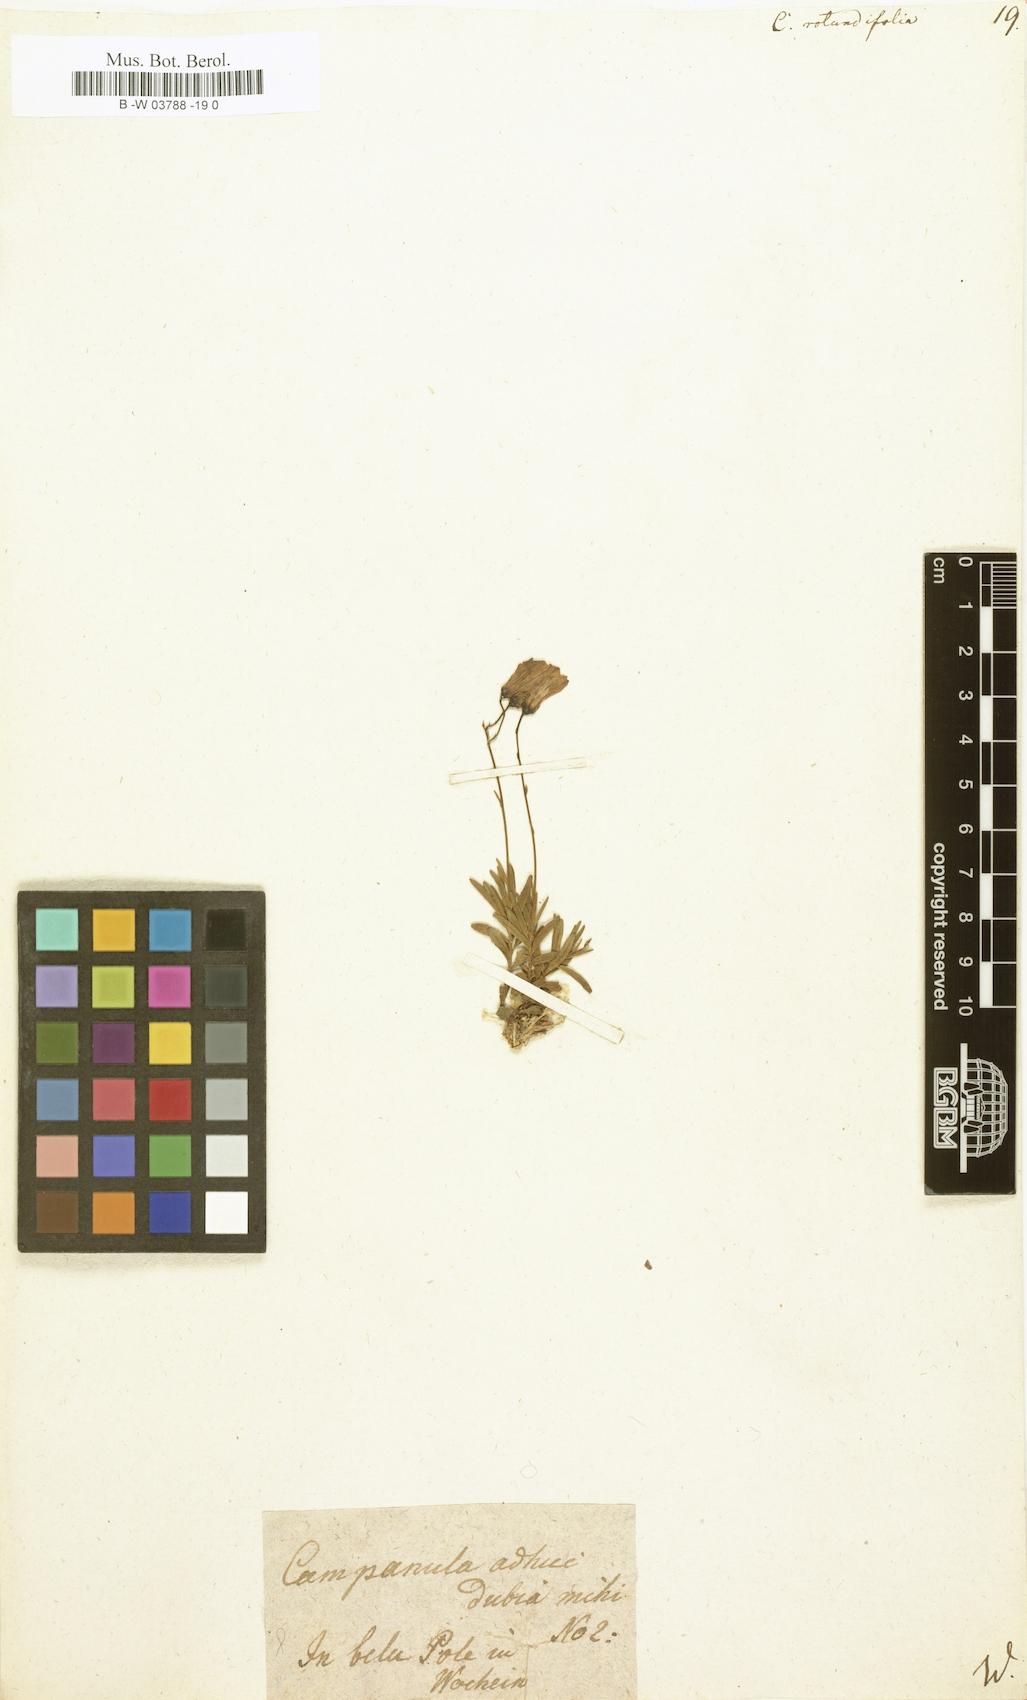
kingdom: Plantae
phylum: Tracheophyta
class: Magnoliopsida
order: Asterales
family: Campanulaceae
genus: Campanula
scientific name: Campanula rotundifolia
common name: Harebell
